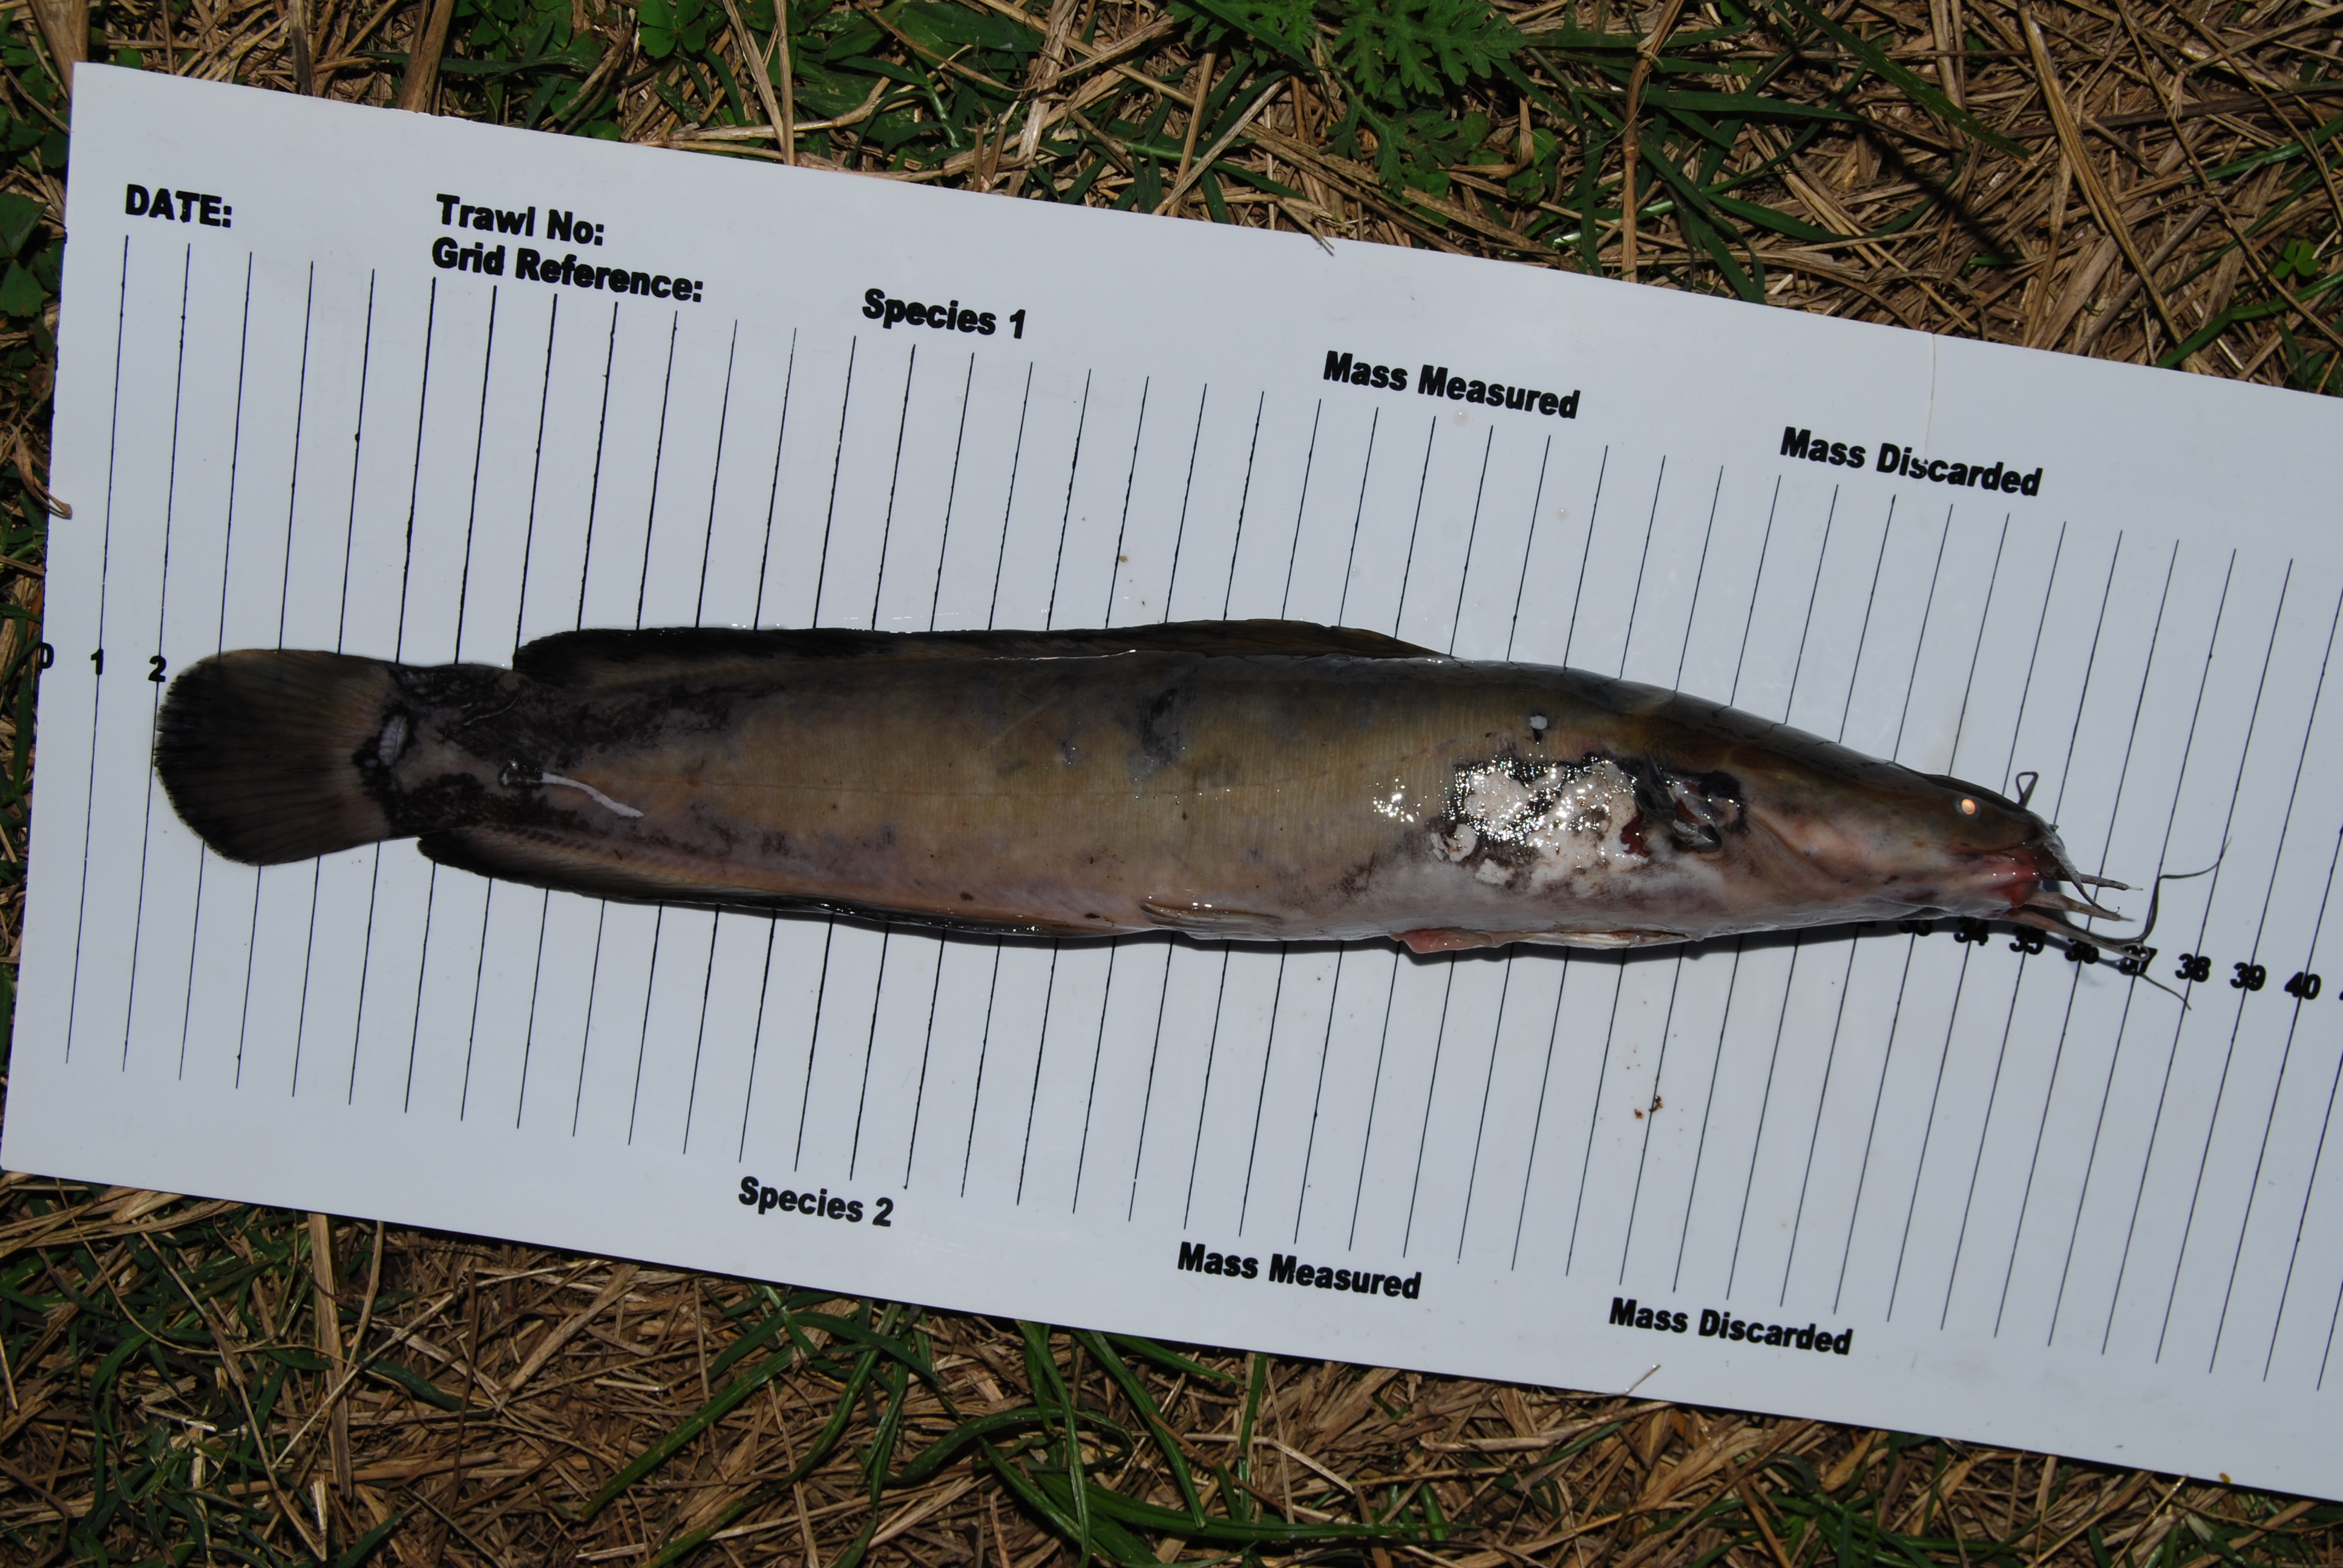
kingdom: Animalia
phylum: Chordata
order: Siluriformes
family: Clariidae
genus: Clarias
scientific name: Clarias ngamensis
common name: Blunt-toothed african catfish
